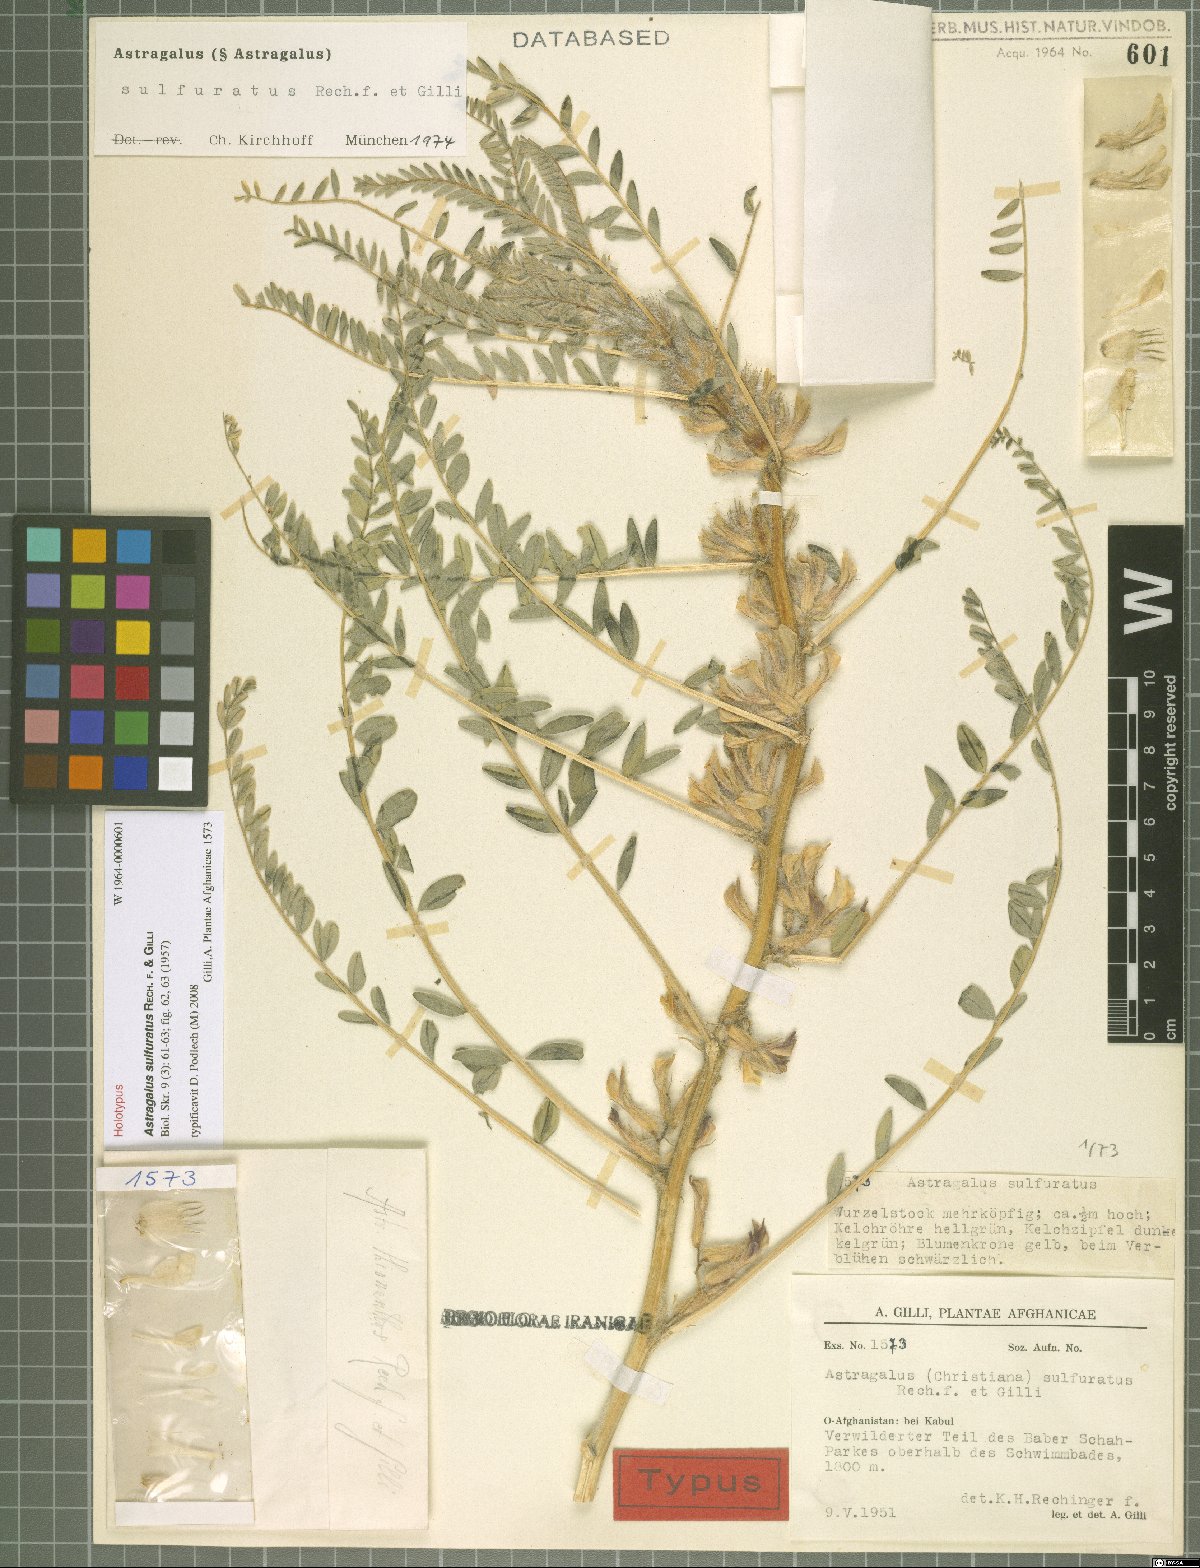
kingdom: Plantae
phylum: Tracheophyta
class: Magnoliopsida
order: Fabales
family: Fabaceae
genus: Astragalus
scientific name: Astragalus sulfuratus
